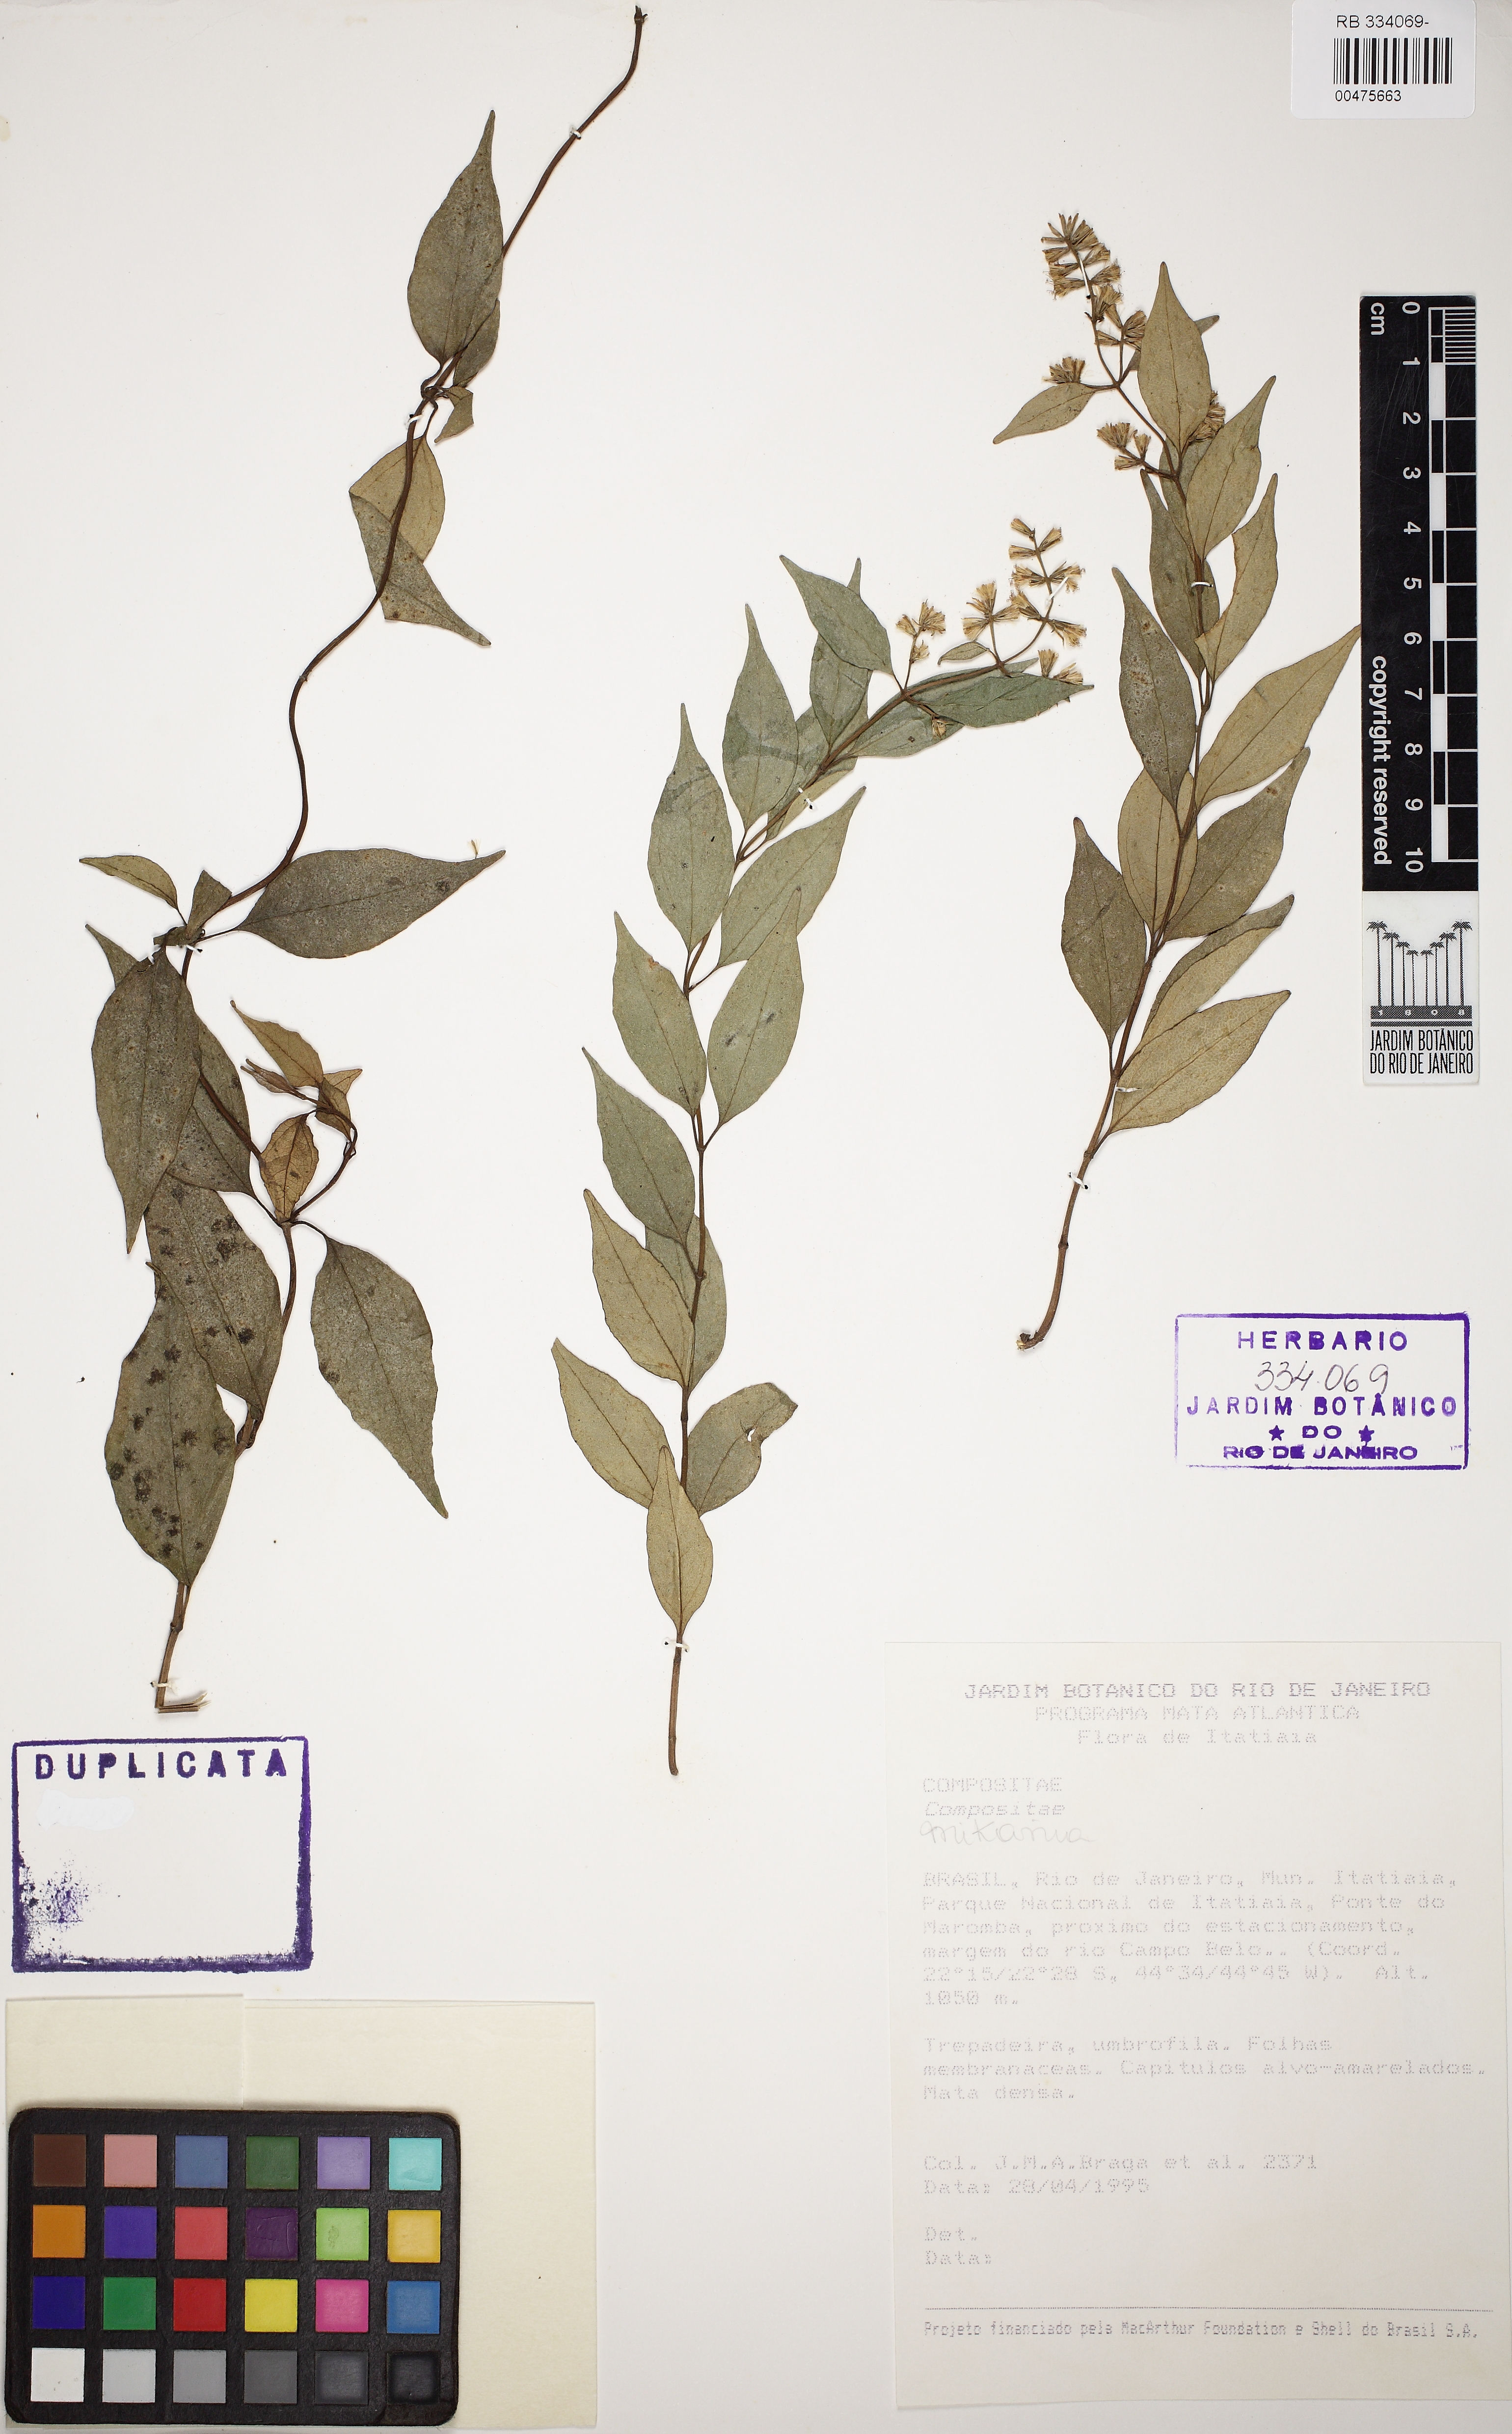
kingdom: Plantae
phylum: Tracheophyta
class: Magnoliopsida
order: Asterales
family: Asteraceae
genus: Mikania
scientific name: Mikania acuminata
